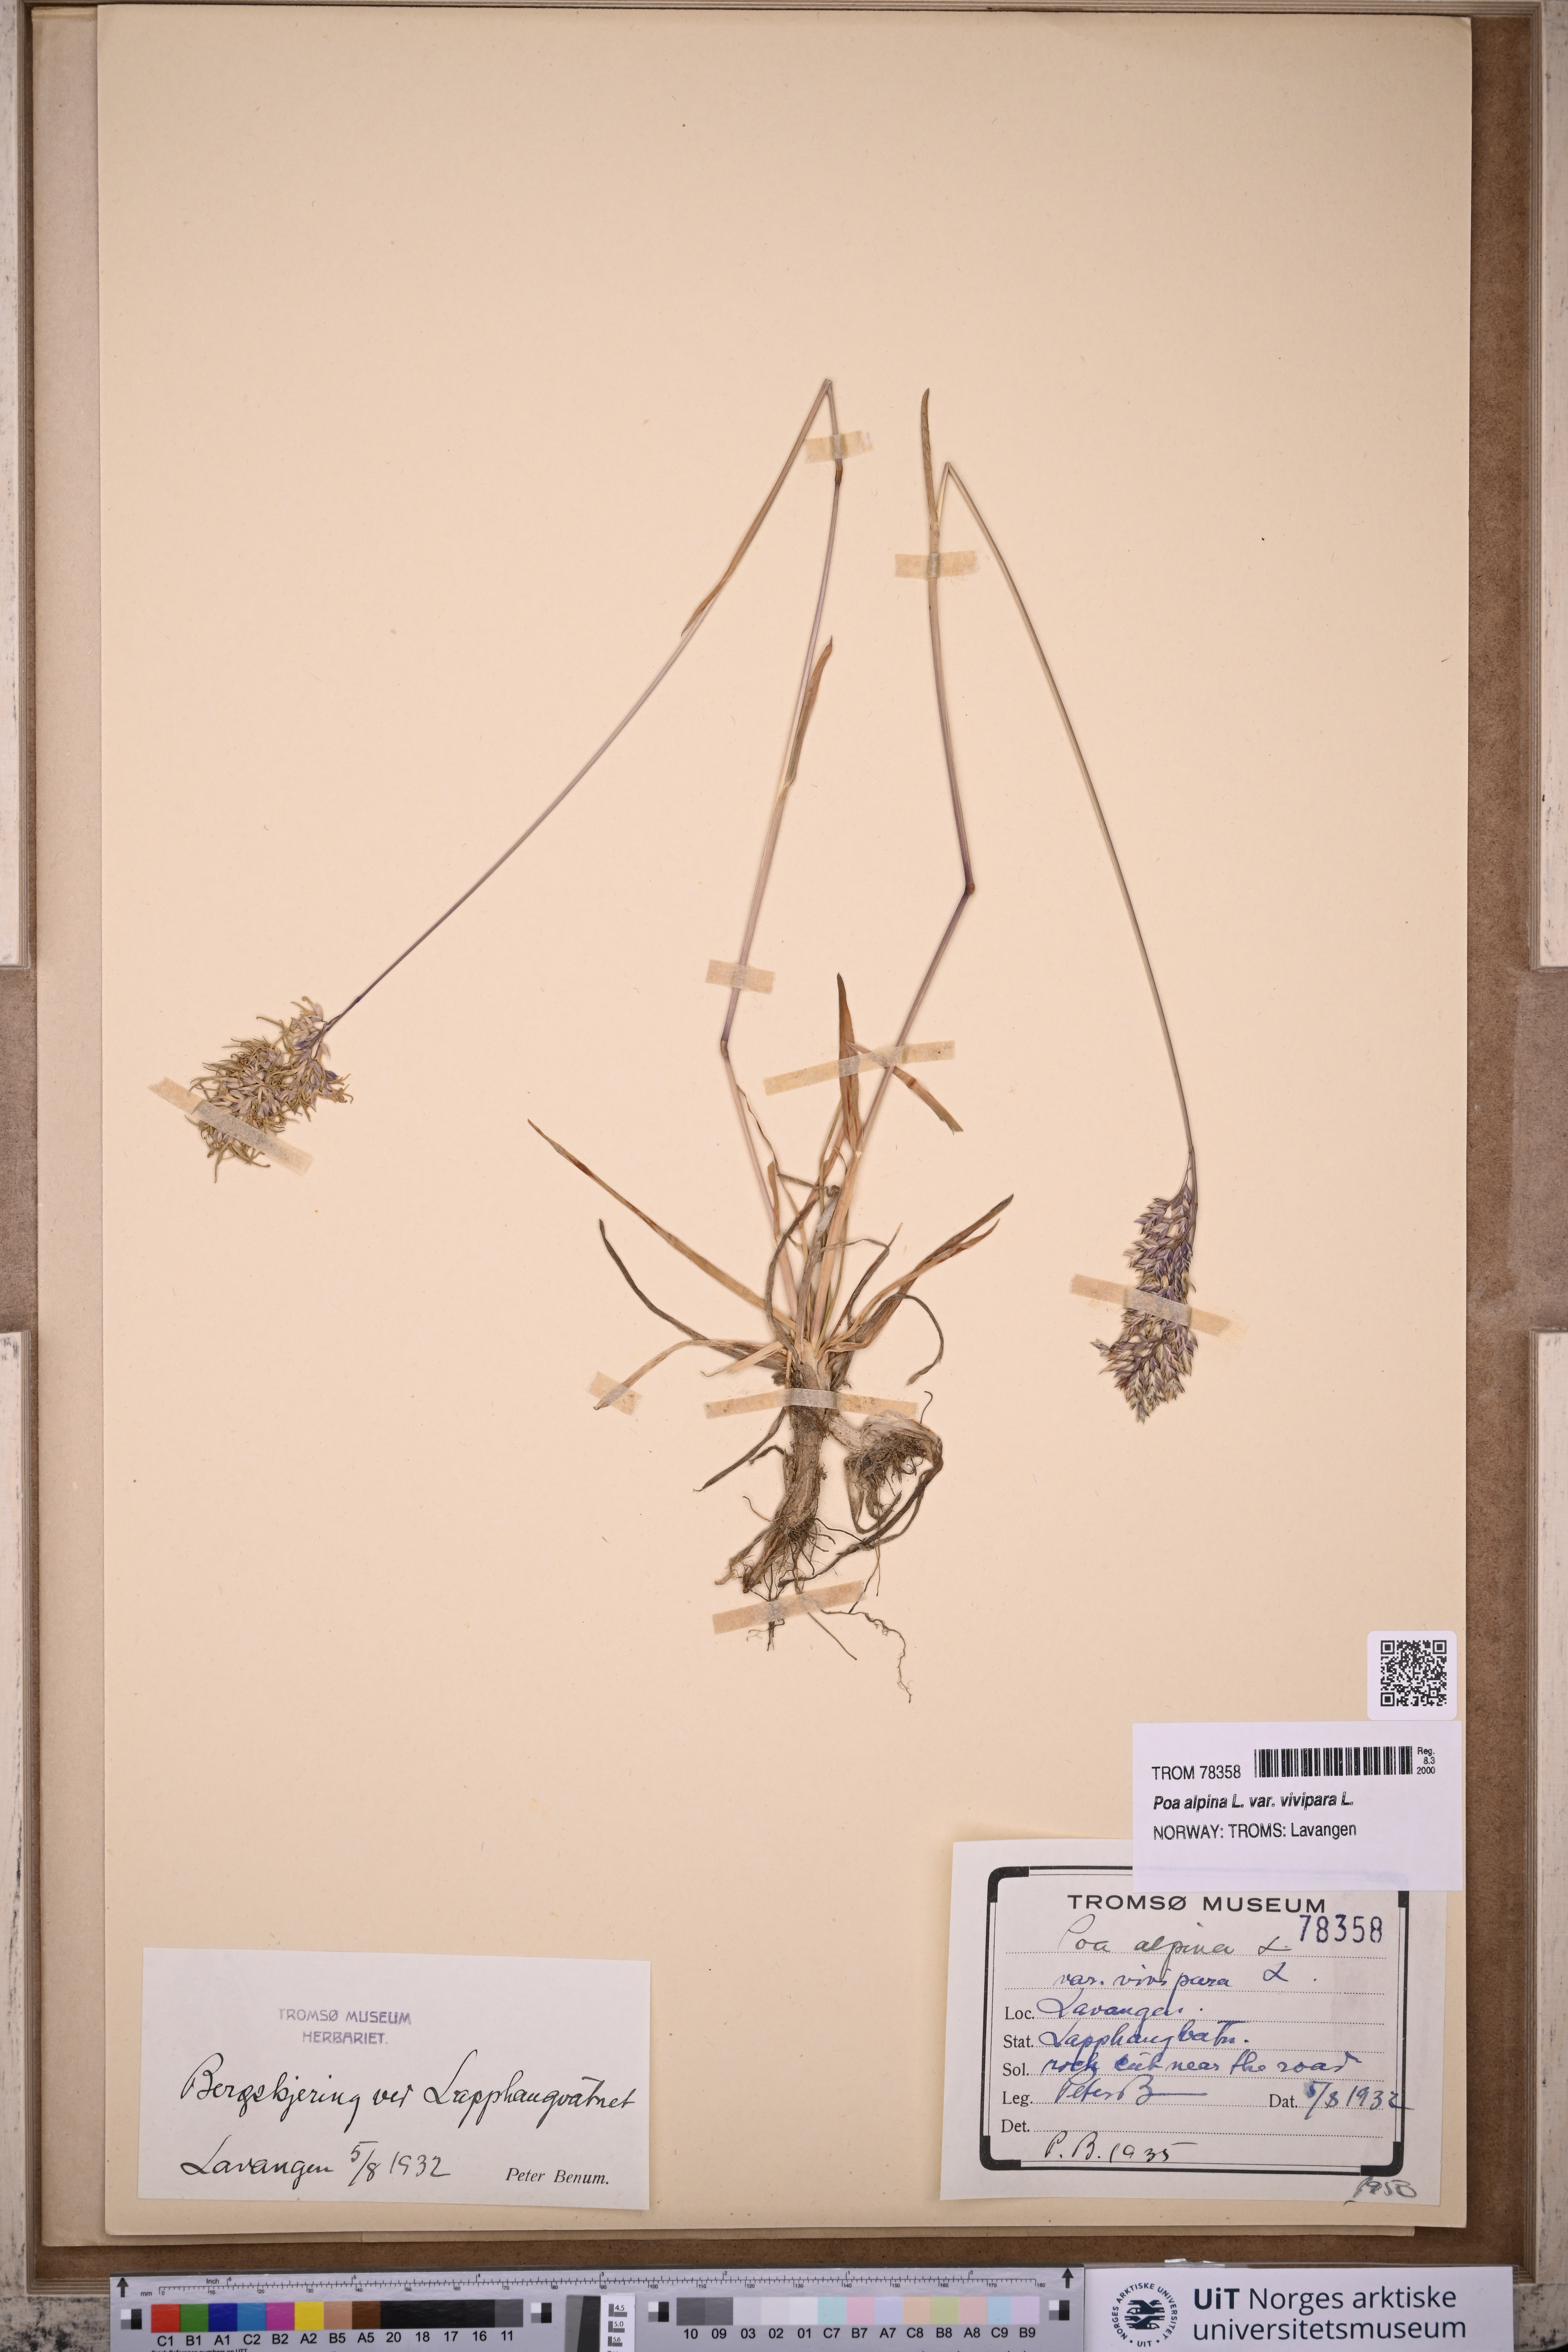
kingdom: Plantae
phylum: Tracheophyta
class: Liliopsida
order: Poales
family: Poaceae
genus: Poa
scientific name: Poa alpina
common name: Alpine bluegrass
